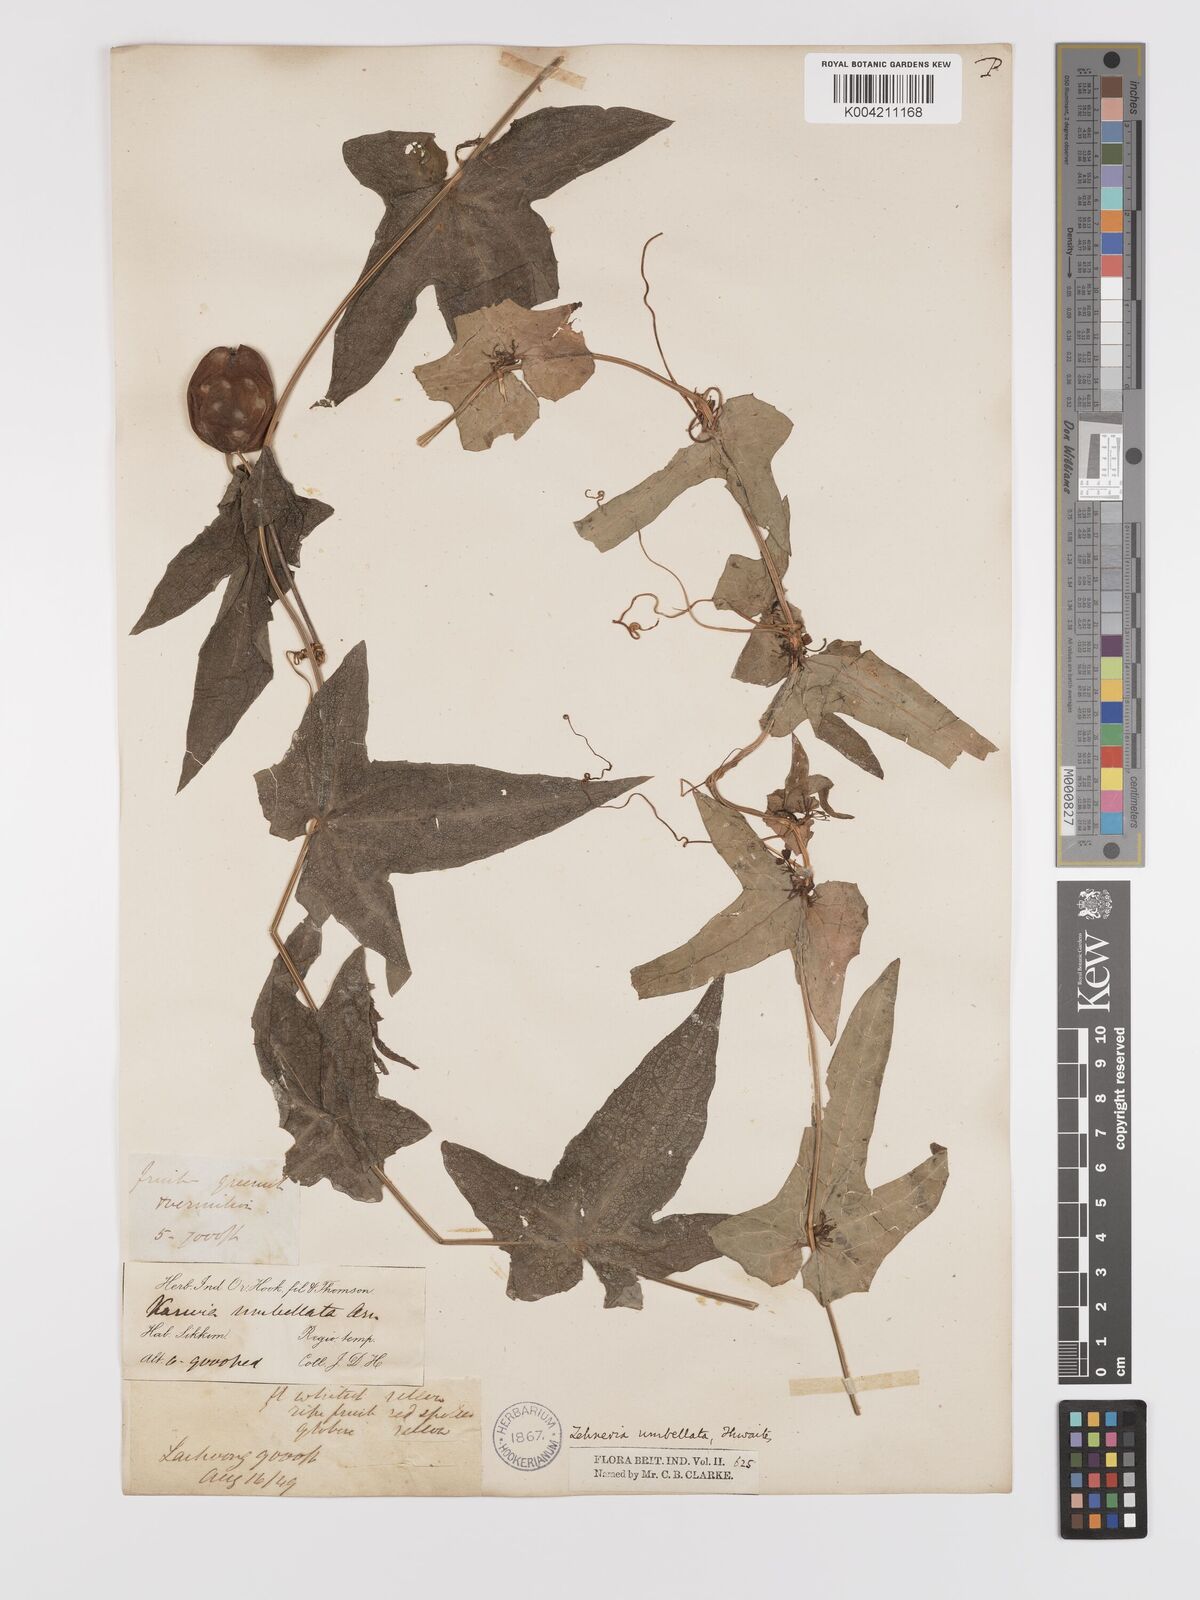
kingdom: Plantae
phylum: Tracheophyta
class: Magnoliopsida
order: Cucurbitales
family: Cucurbitaceae
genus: Solena
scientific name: Solena amplexicaulis
